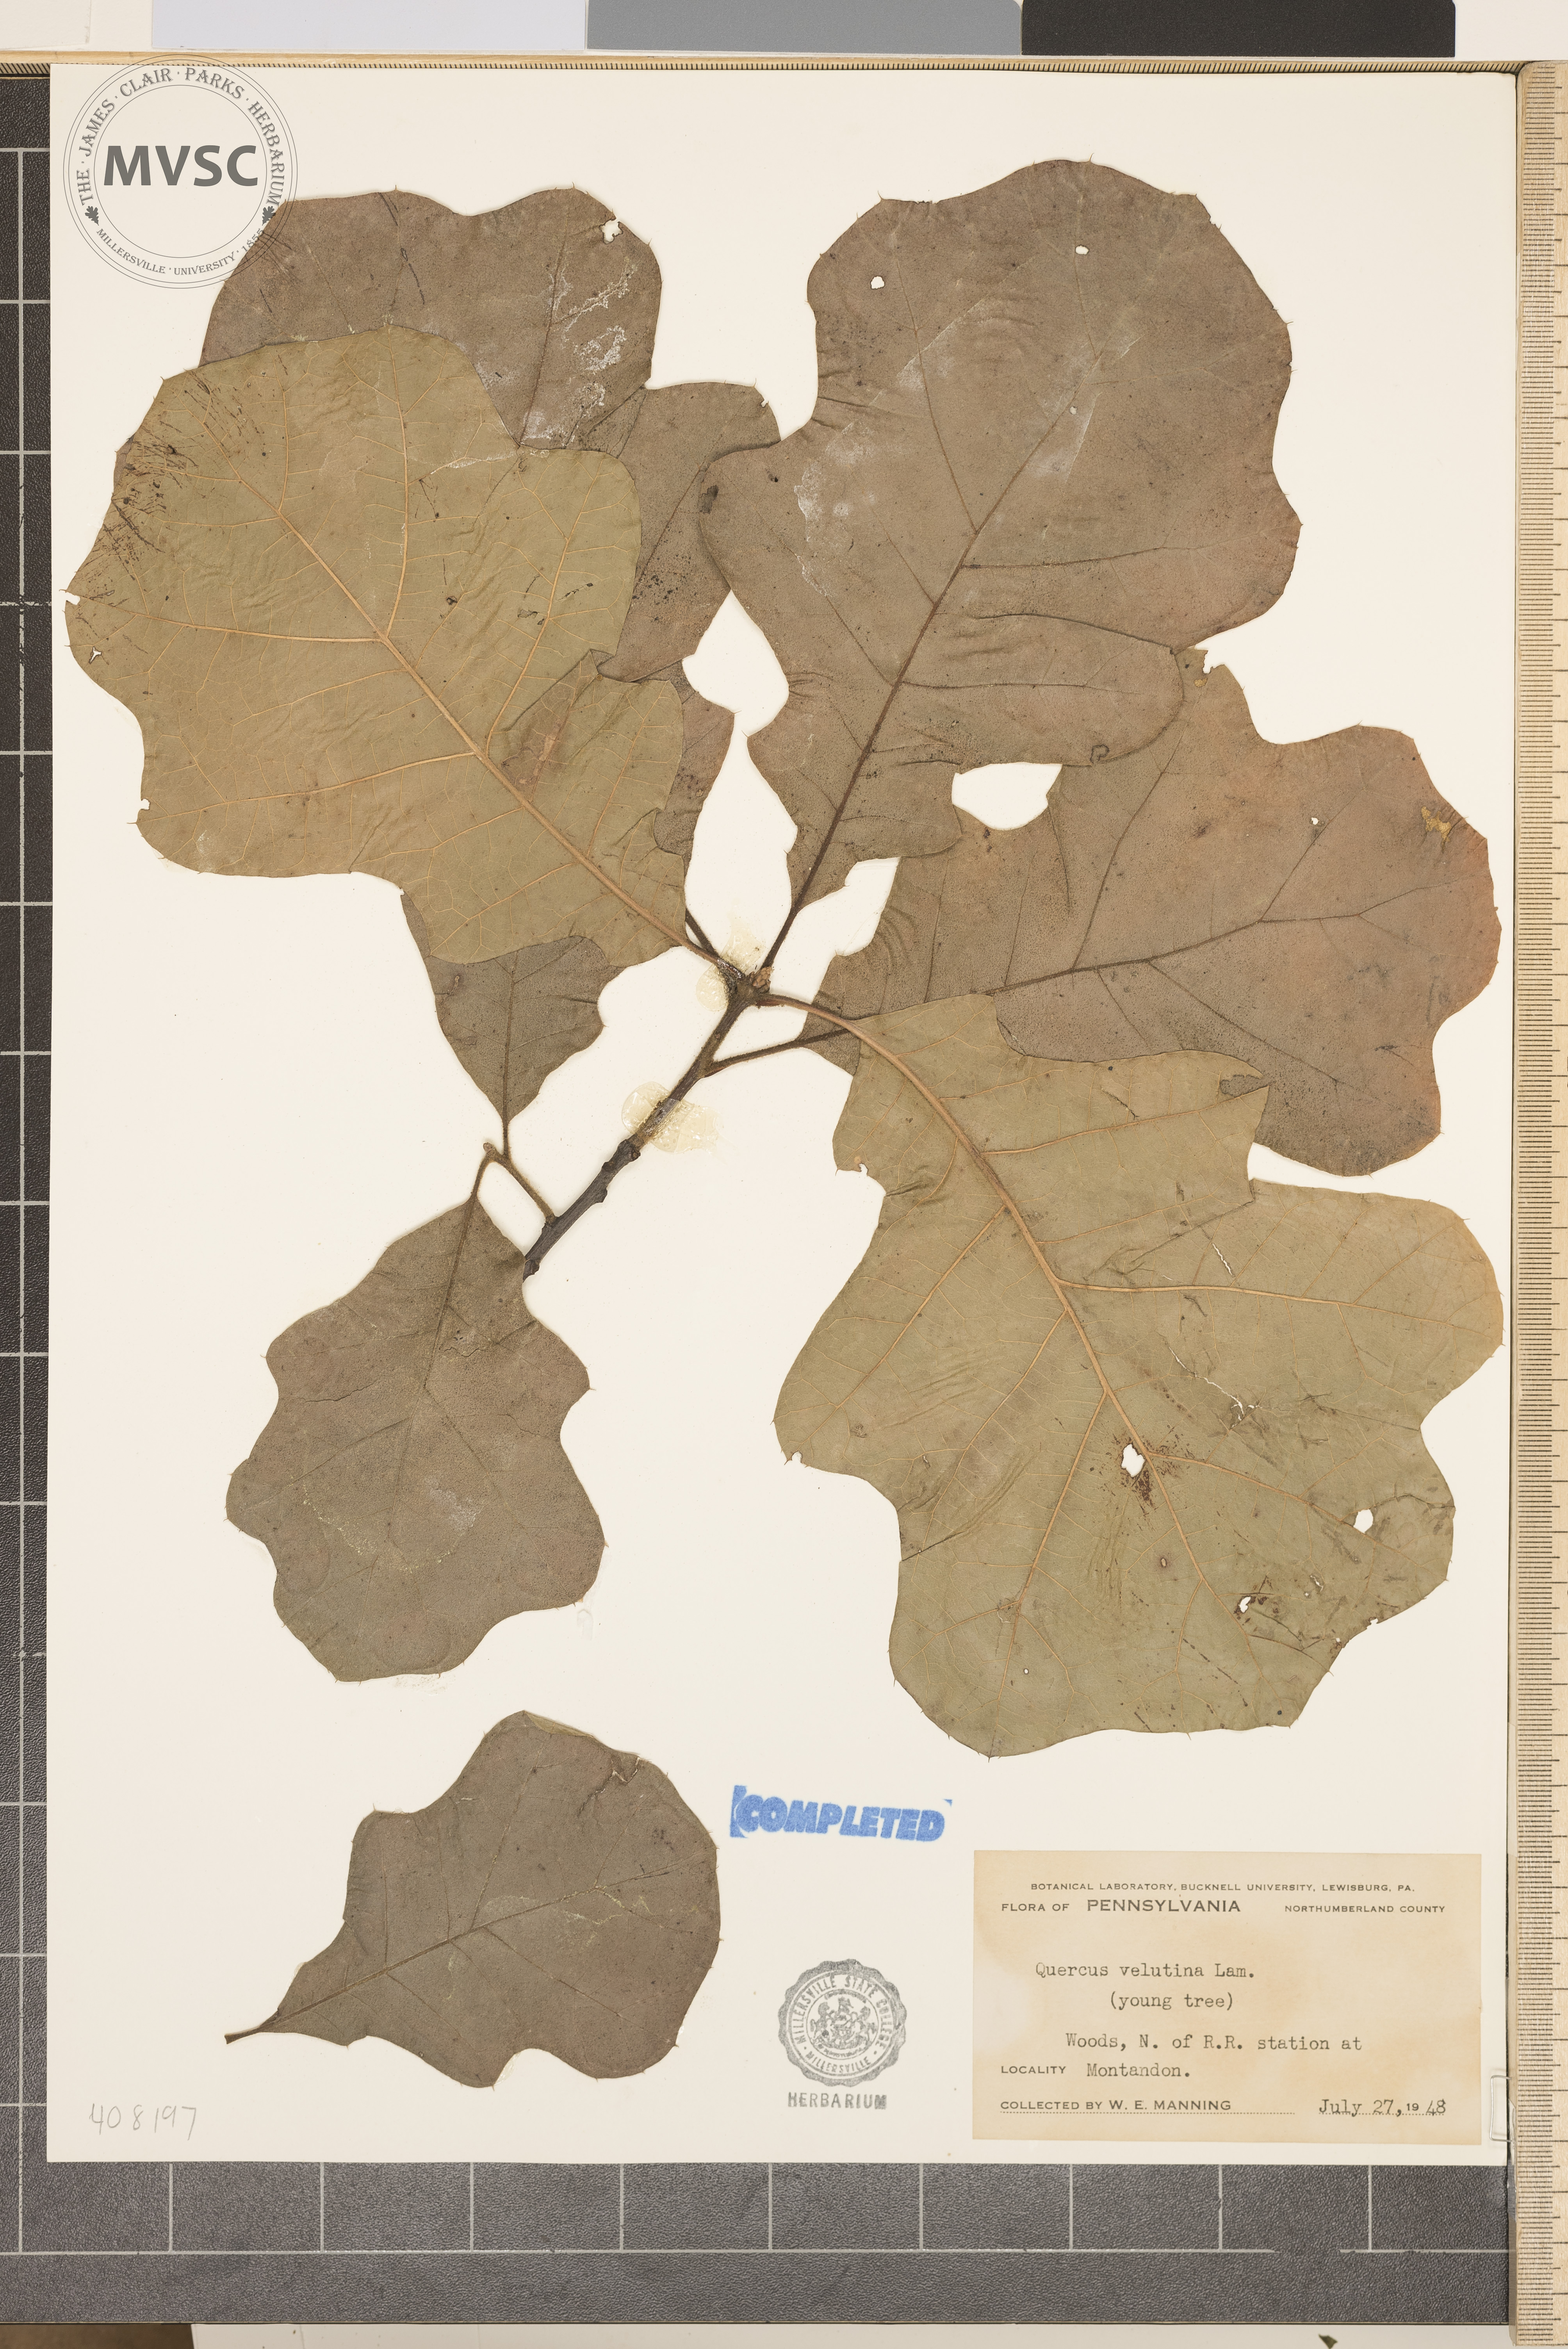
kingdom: Plantae
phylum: Tracheophyta
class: Magnoliopsida
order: Fagales
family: Fagaceae
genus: Quercus
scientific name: Quercus velutina
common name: Black oak
